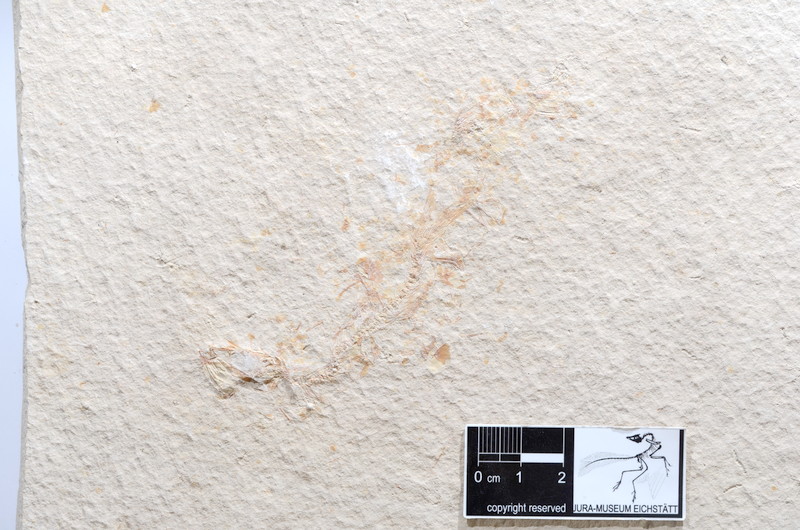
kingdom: Animalia
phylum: Chordata
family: Ascalaboidae
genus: Tharsis
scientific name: Tharsis dubius
